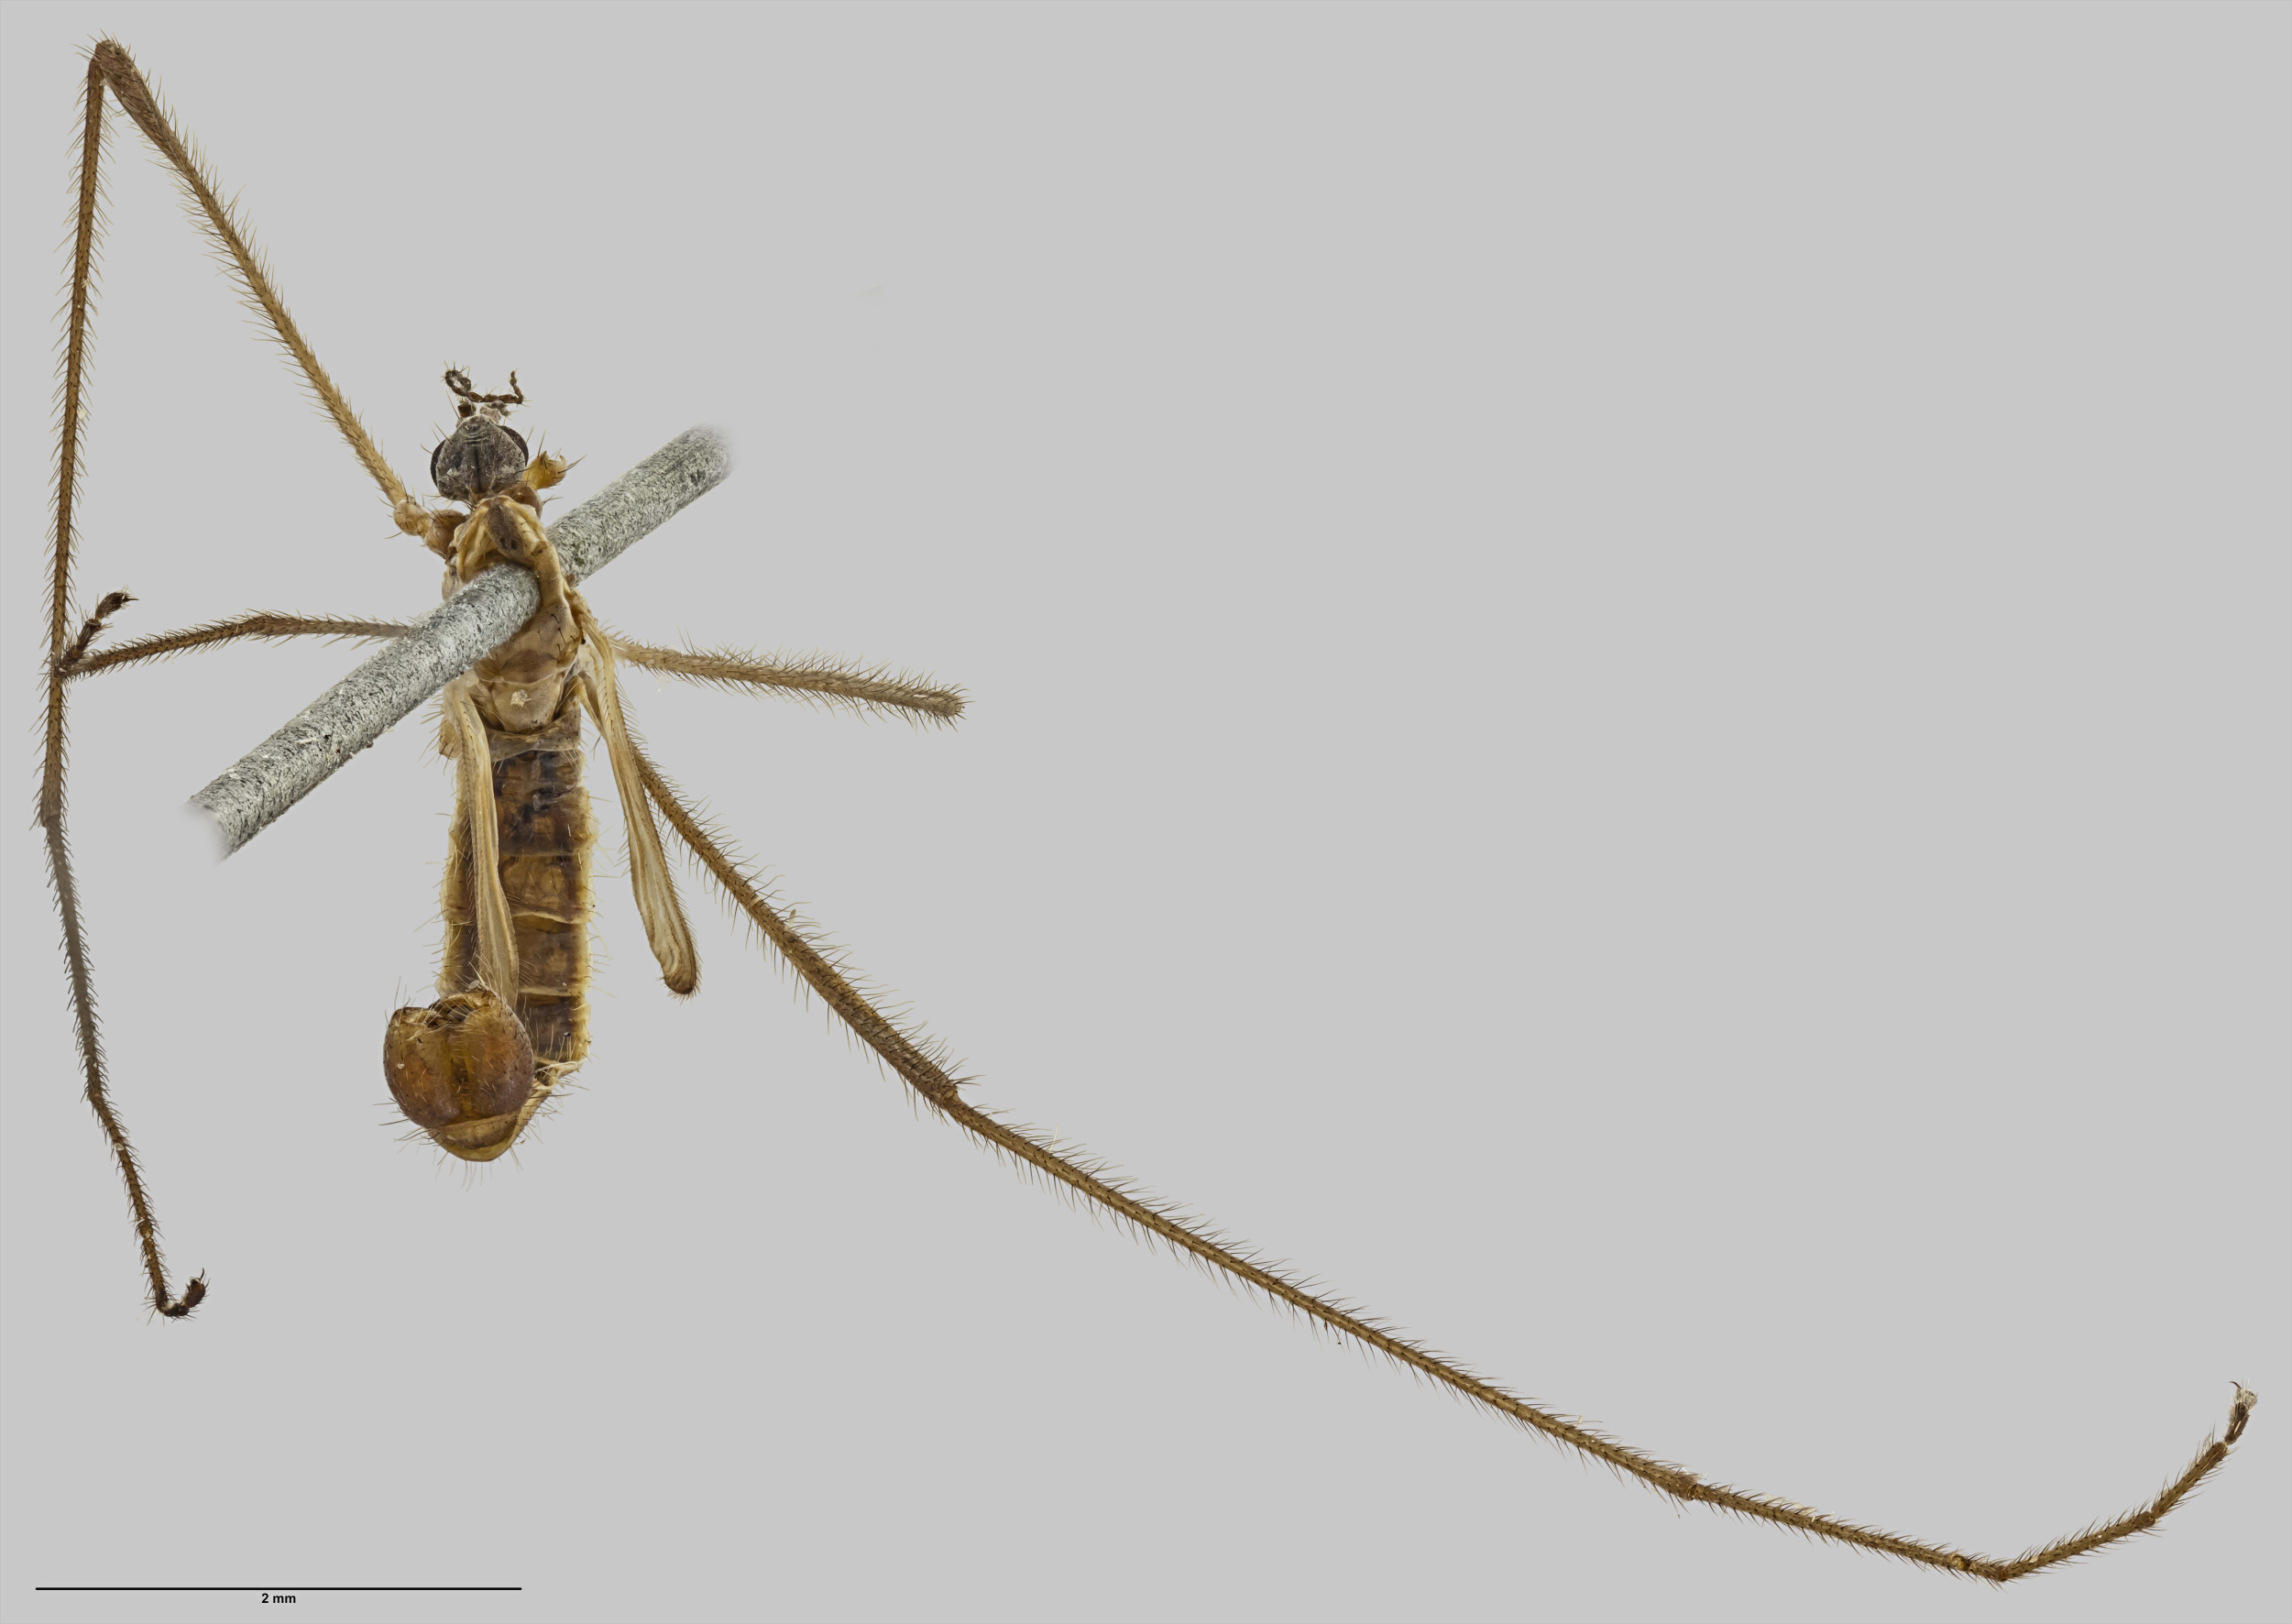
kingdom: Animalia
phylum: Arthropoda
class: Insecta
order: Diptera
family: Limoniidae
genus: Symplecta
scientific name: Symplecta antipodarum
